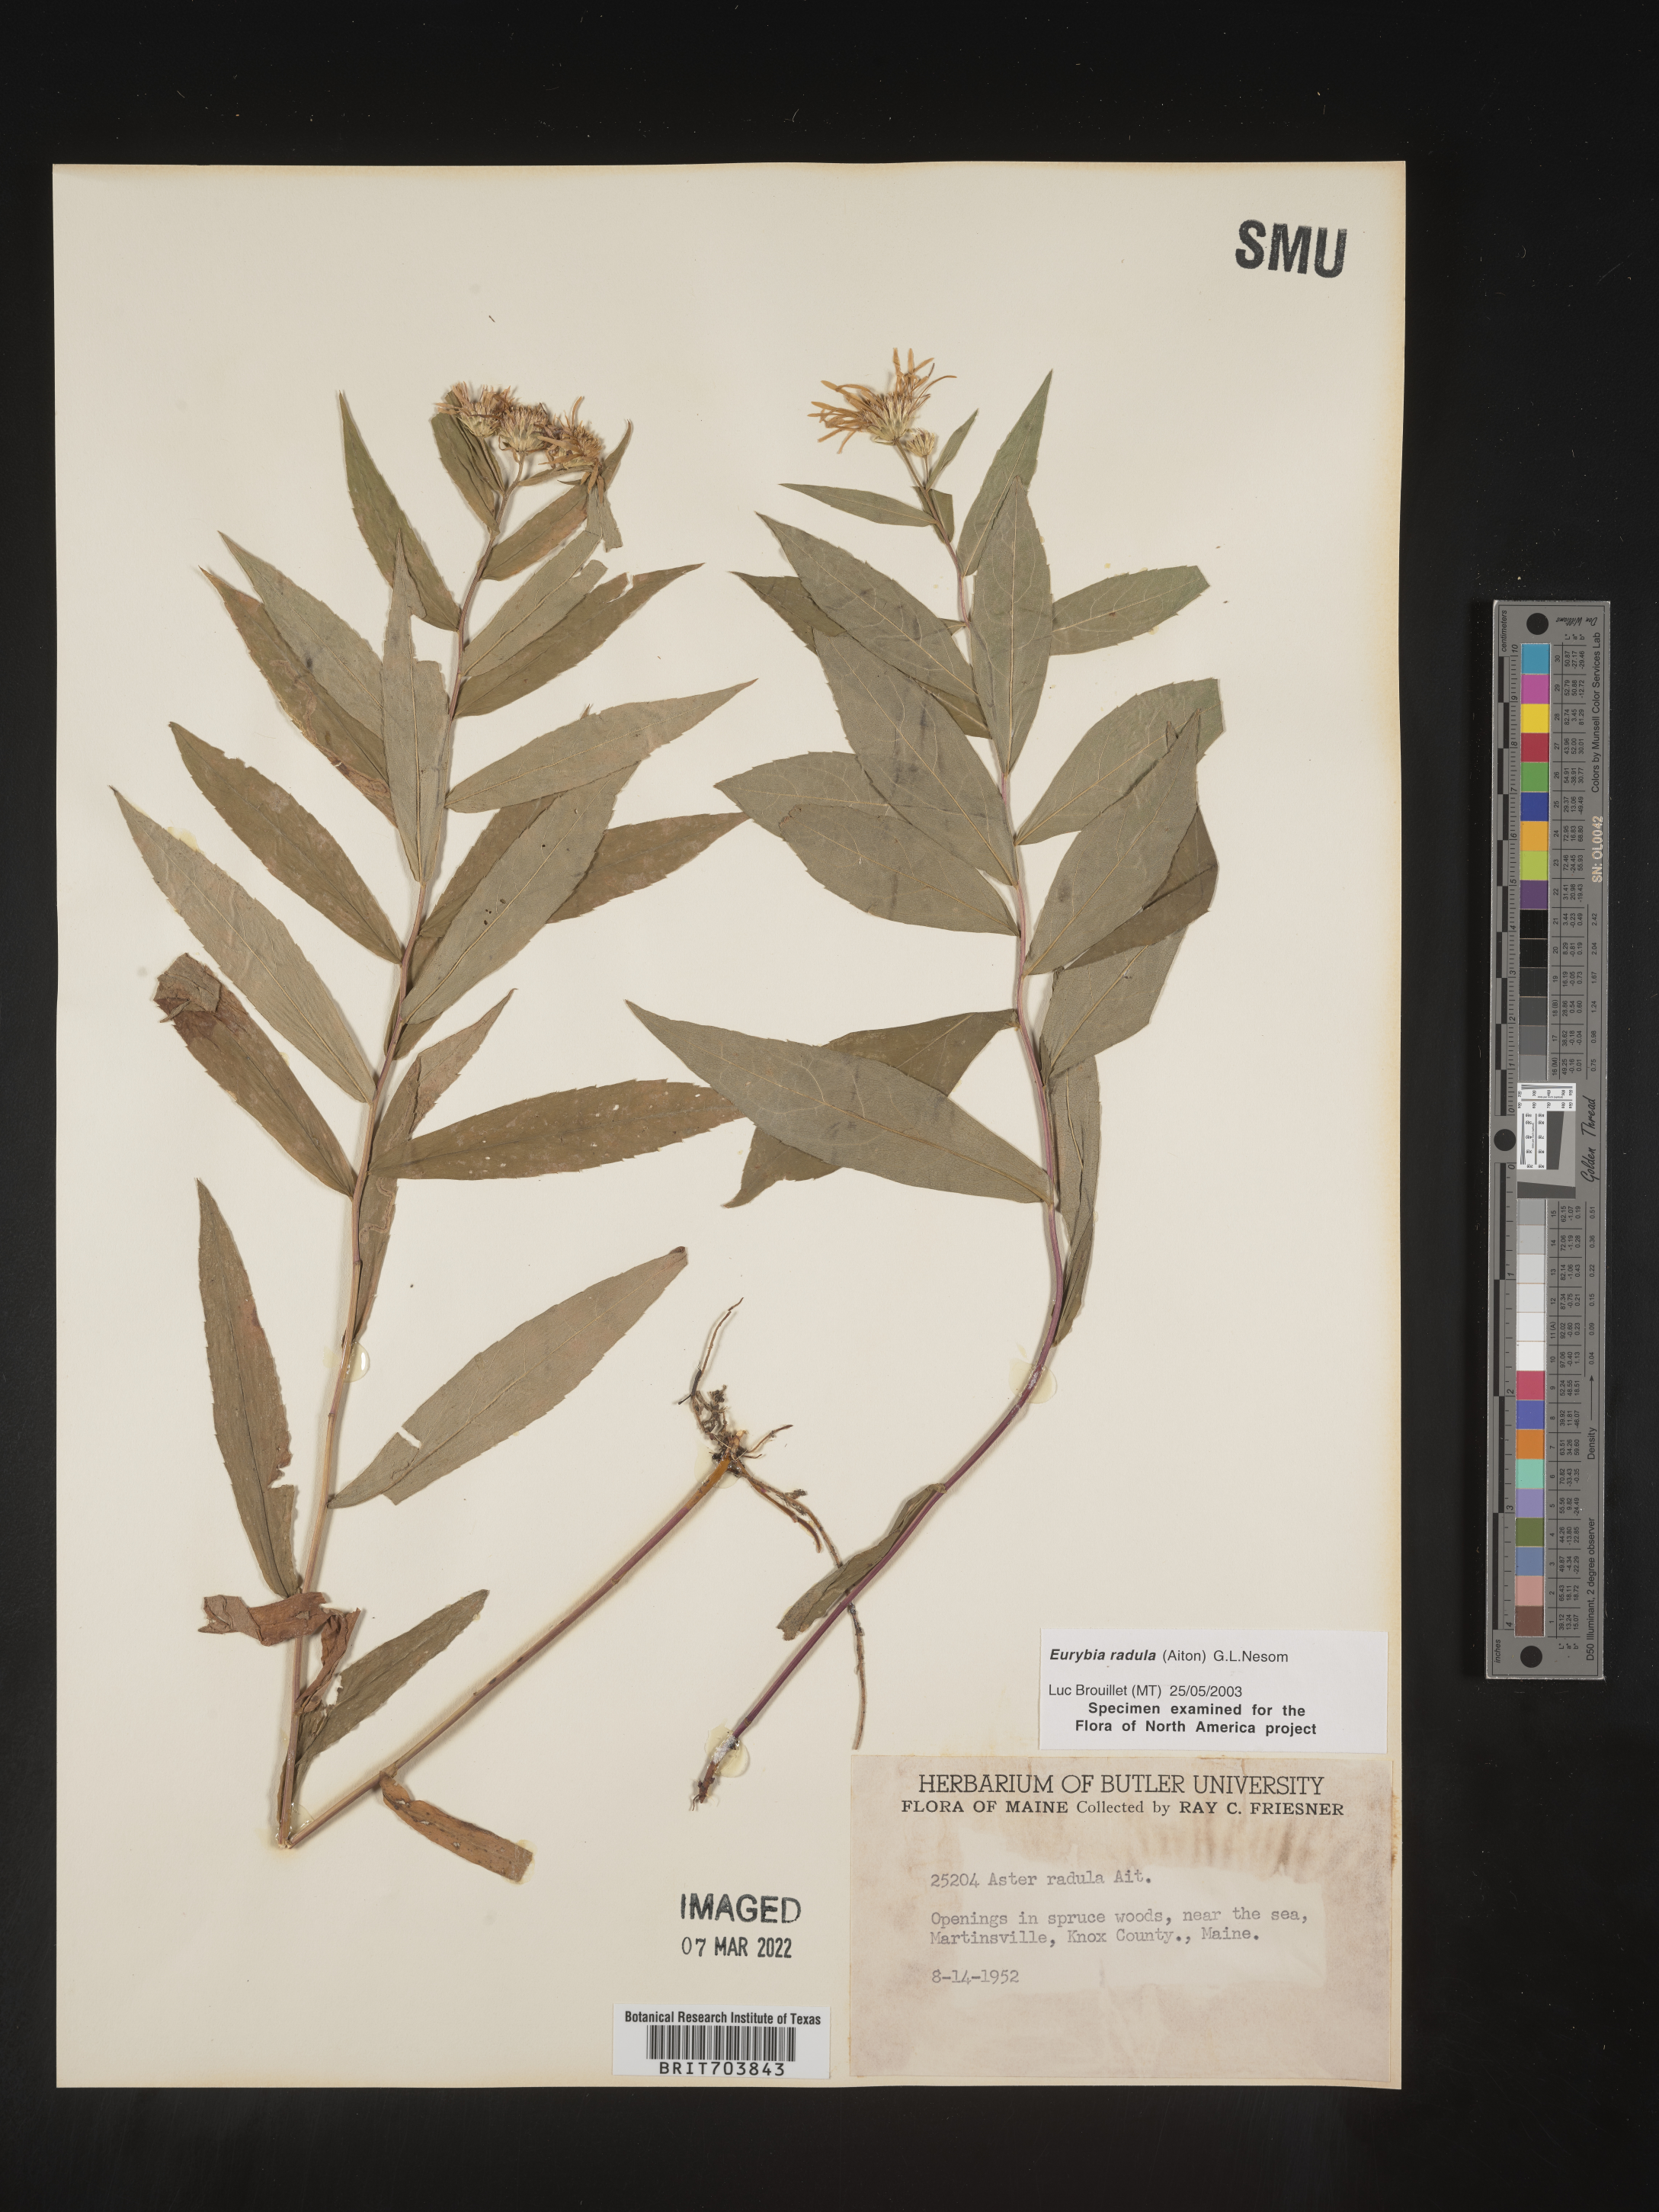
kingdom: Plantae
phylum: Tracheophyta
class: Magnoliopsida
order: Asterales
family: Asteraceae
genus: Eurybia
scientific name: Eurybia radula
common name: Low rough aster
